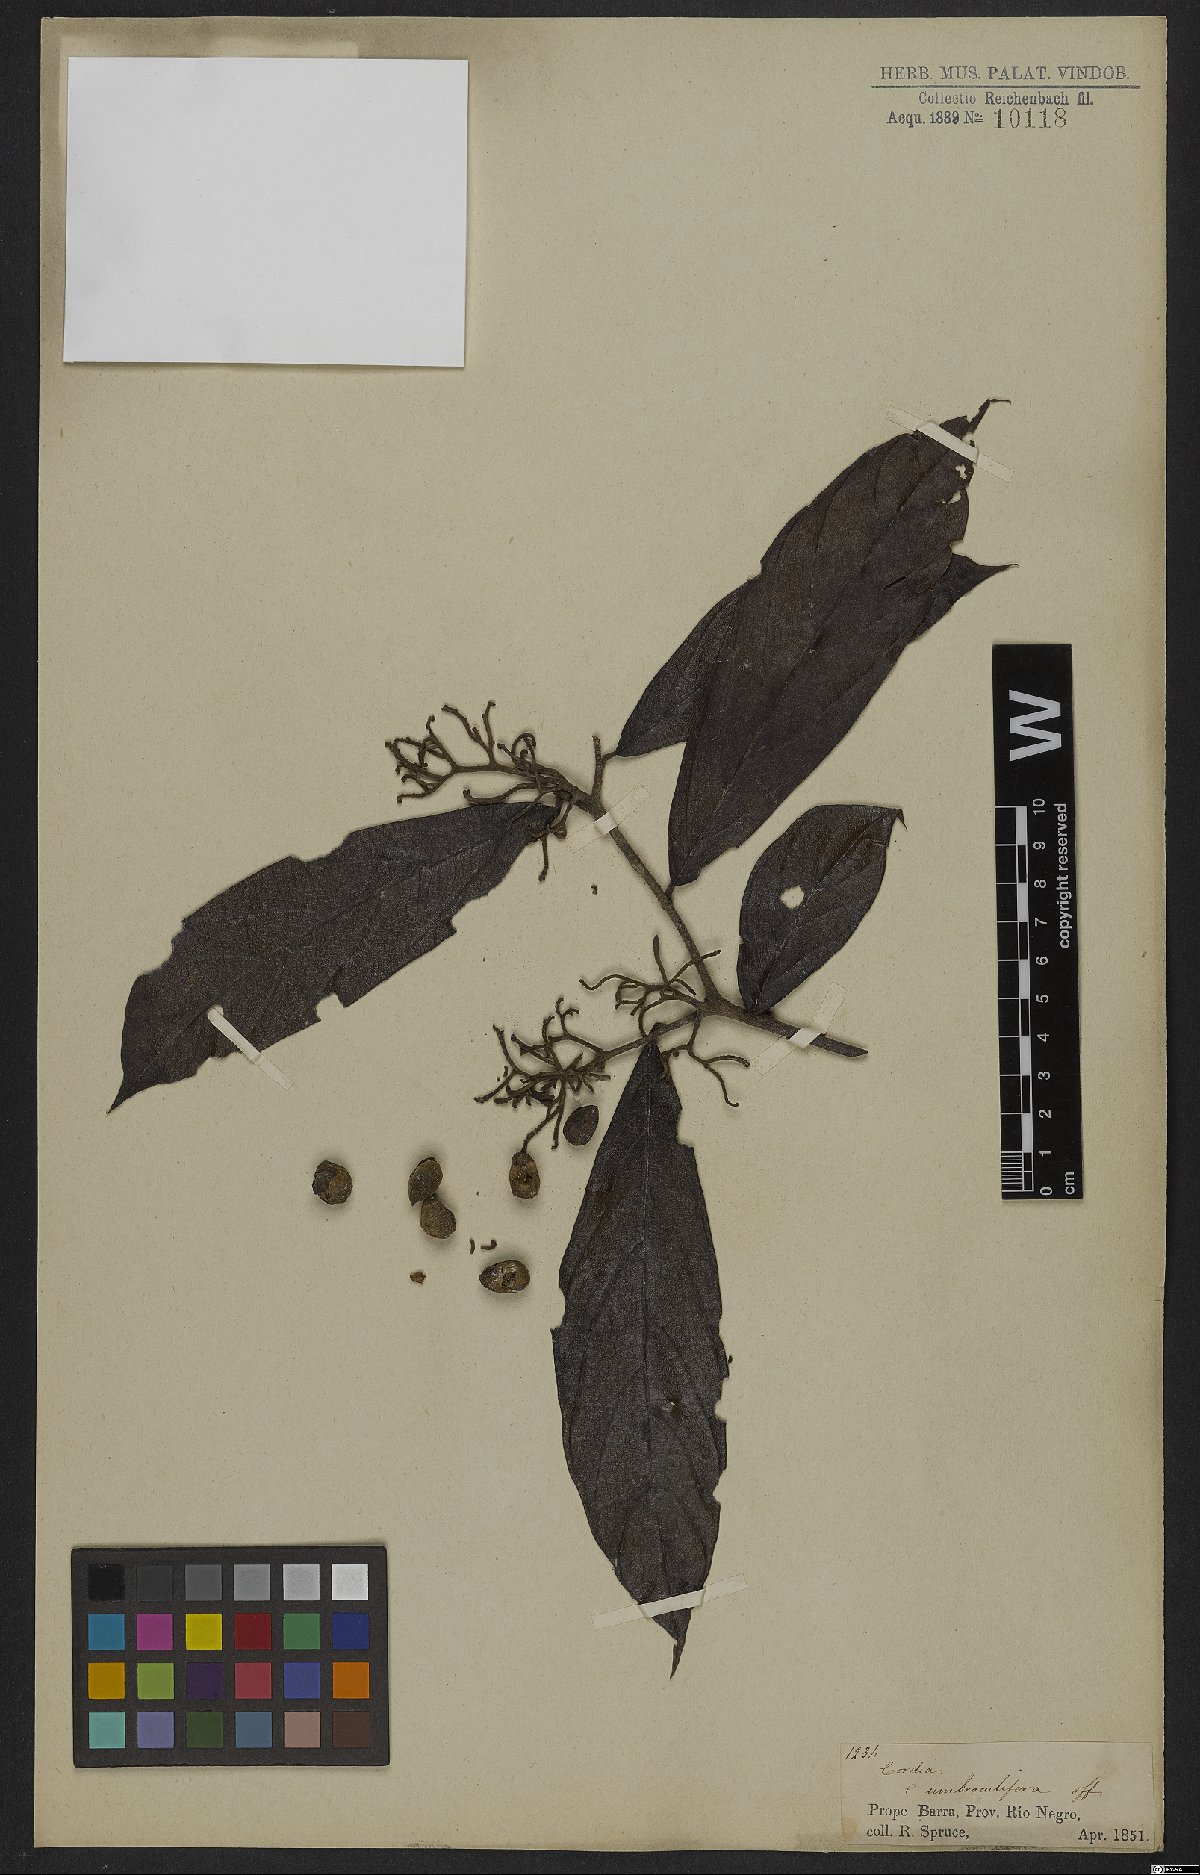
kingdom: Plantae
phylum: Tracheophyta
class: Magnoliopsida
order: Boraginales
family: Cordiaceae
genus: Cordia
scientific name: Cordia tetrandra
